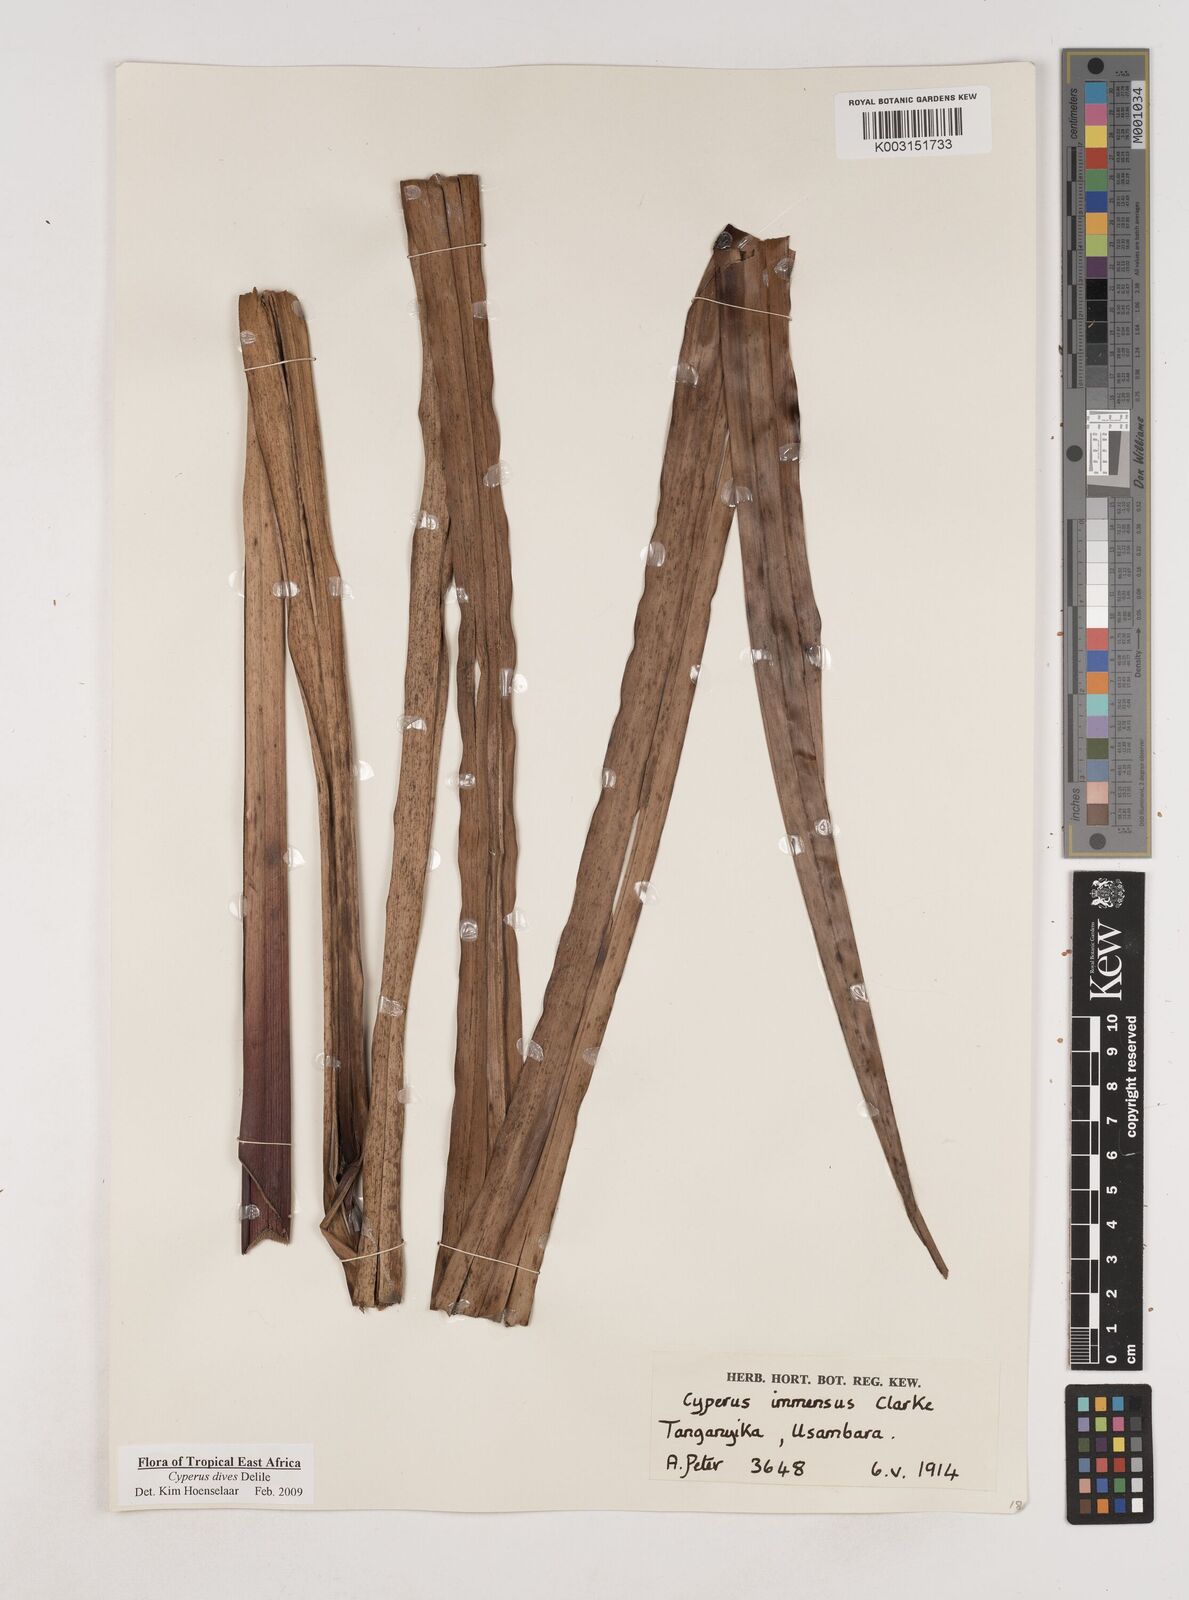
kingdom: Plantae
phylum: Tracheophyta
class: Liliopsida
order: Poales
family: Cyperaceae
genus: Cyperus
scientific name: Cyperus dives
